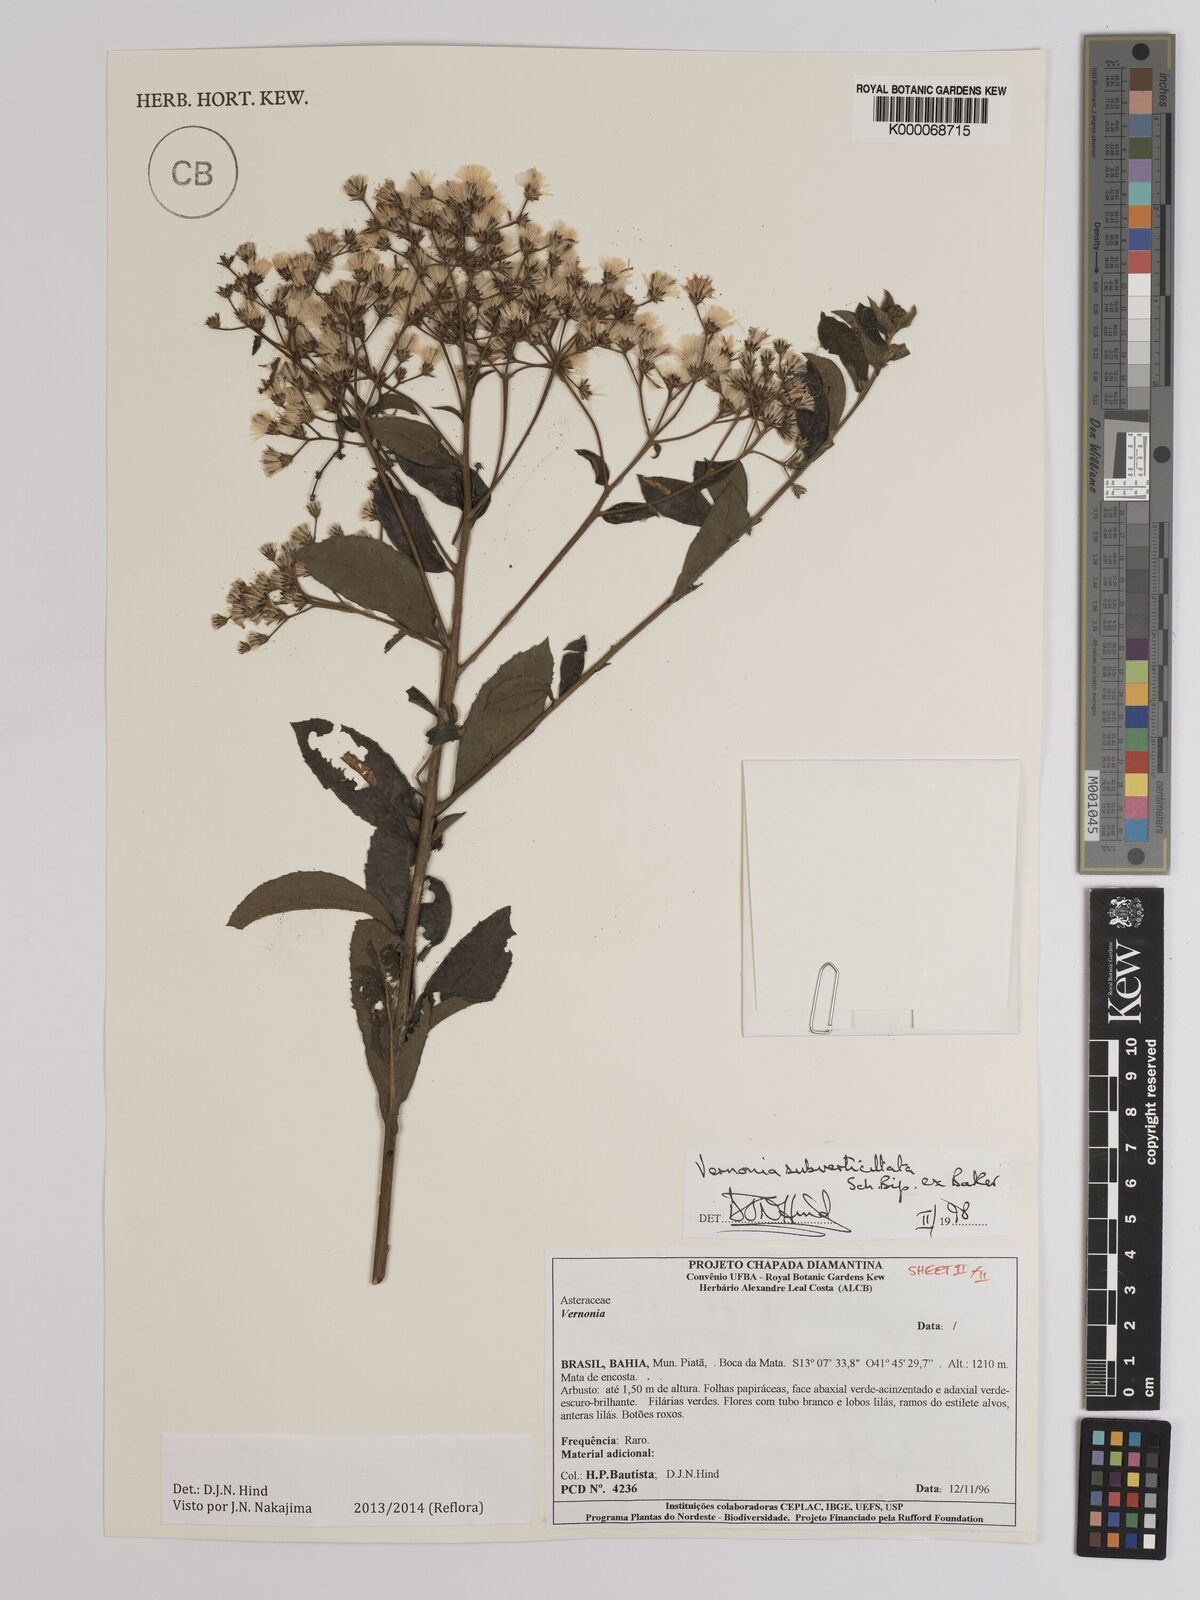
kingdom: Plantae
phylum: Tracheophyta
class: Magnoliopsida
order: Asterales
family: Asteraceae
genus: Vernonia
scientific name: Vernonia
